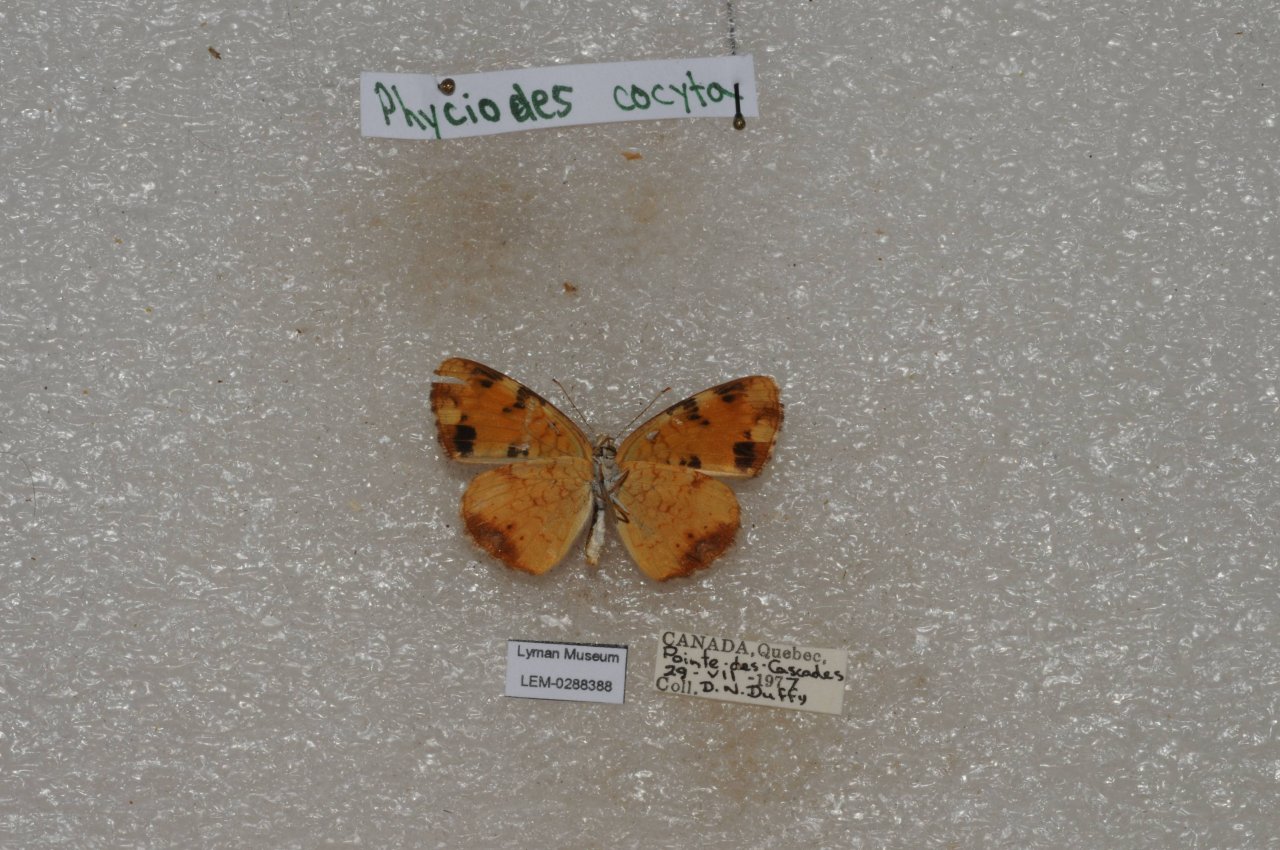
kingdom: Animalia
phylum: Arthropoda
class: Insecta
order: Lepidoptera
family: Nymphalidae
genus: Phyciodes
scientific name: Phyciodes tharos
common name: Northern Crescent
